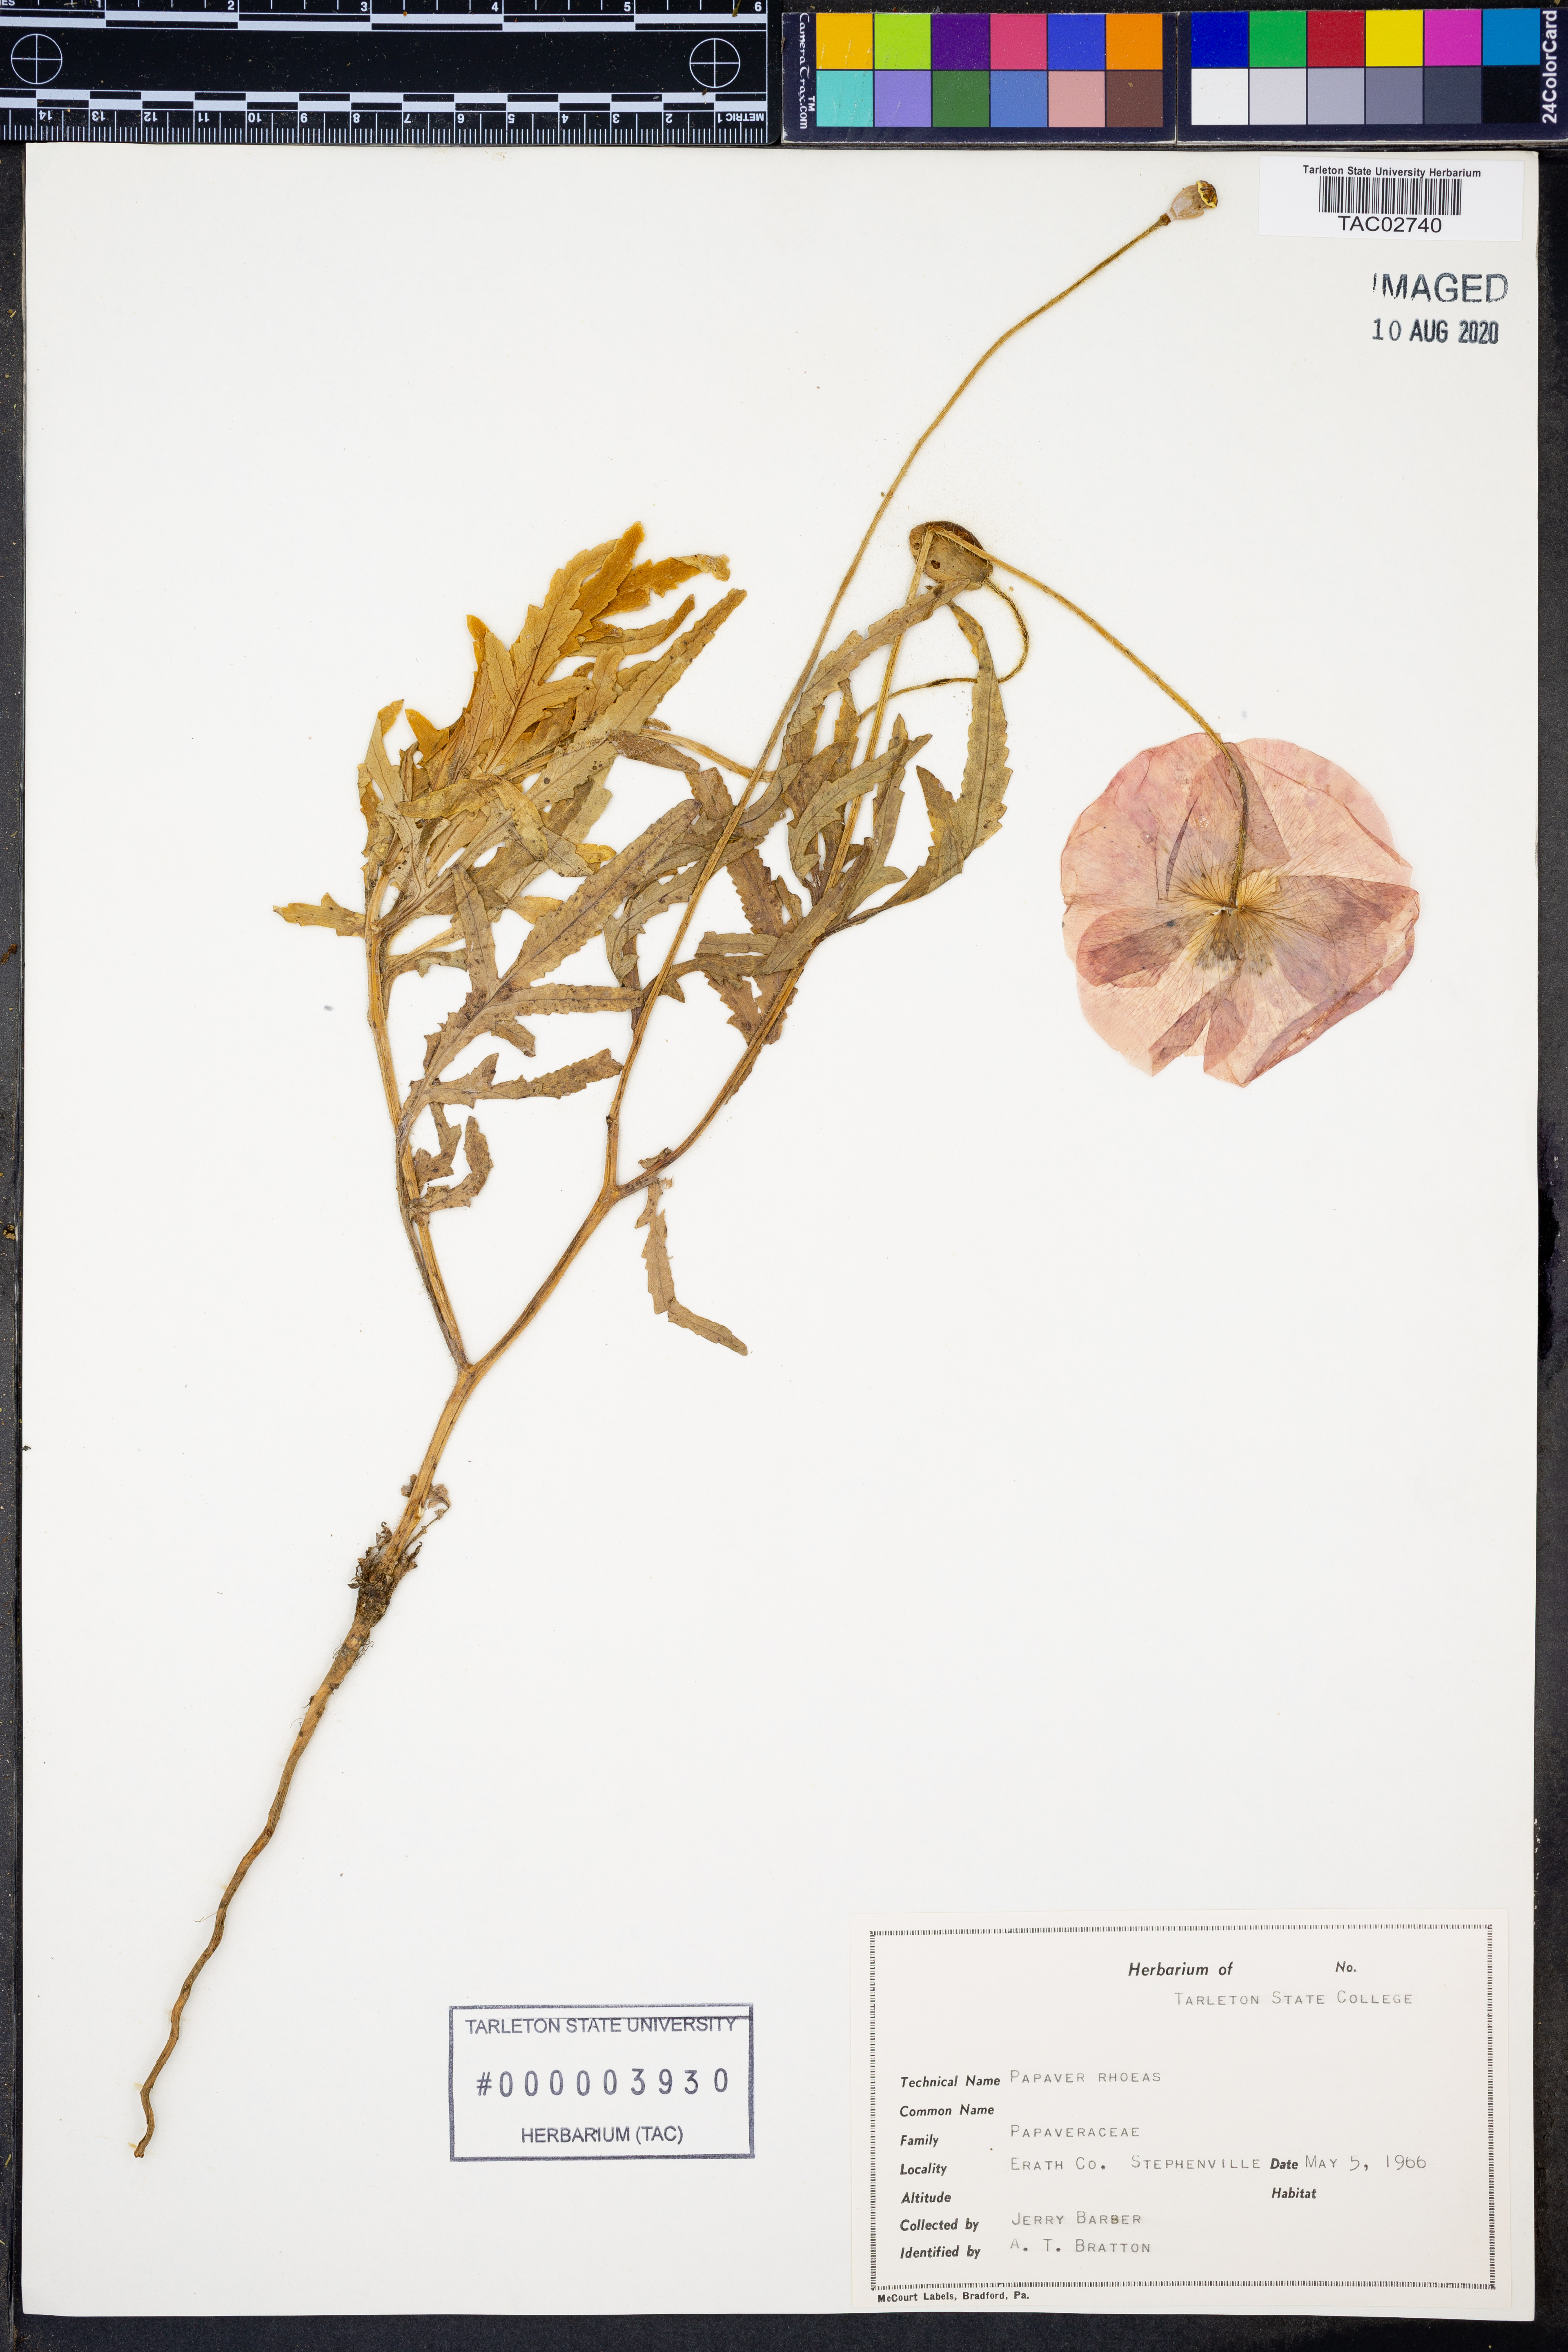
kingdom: Plantae
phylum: Tracheophyta
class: Magnoliopsida
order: Ranunculales
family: Papaveraceae
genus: Papaver
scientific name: Papaver rhoeas
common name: Corn poppy
